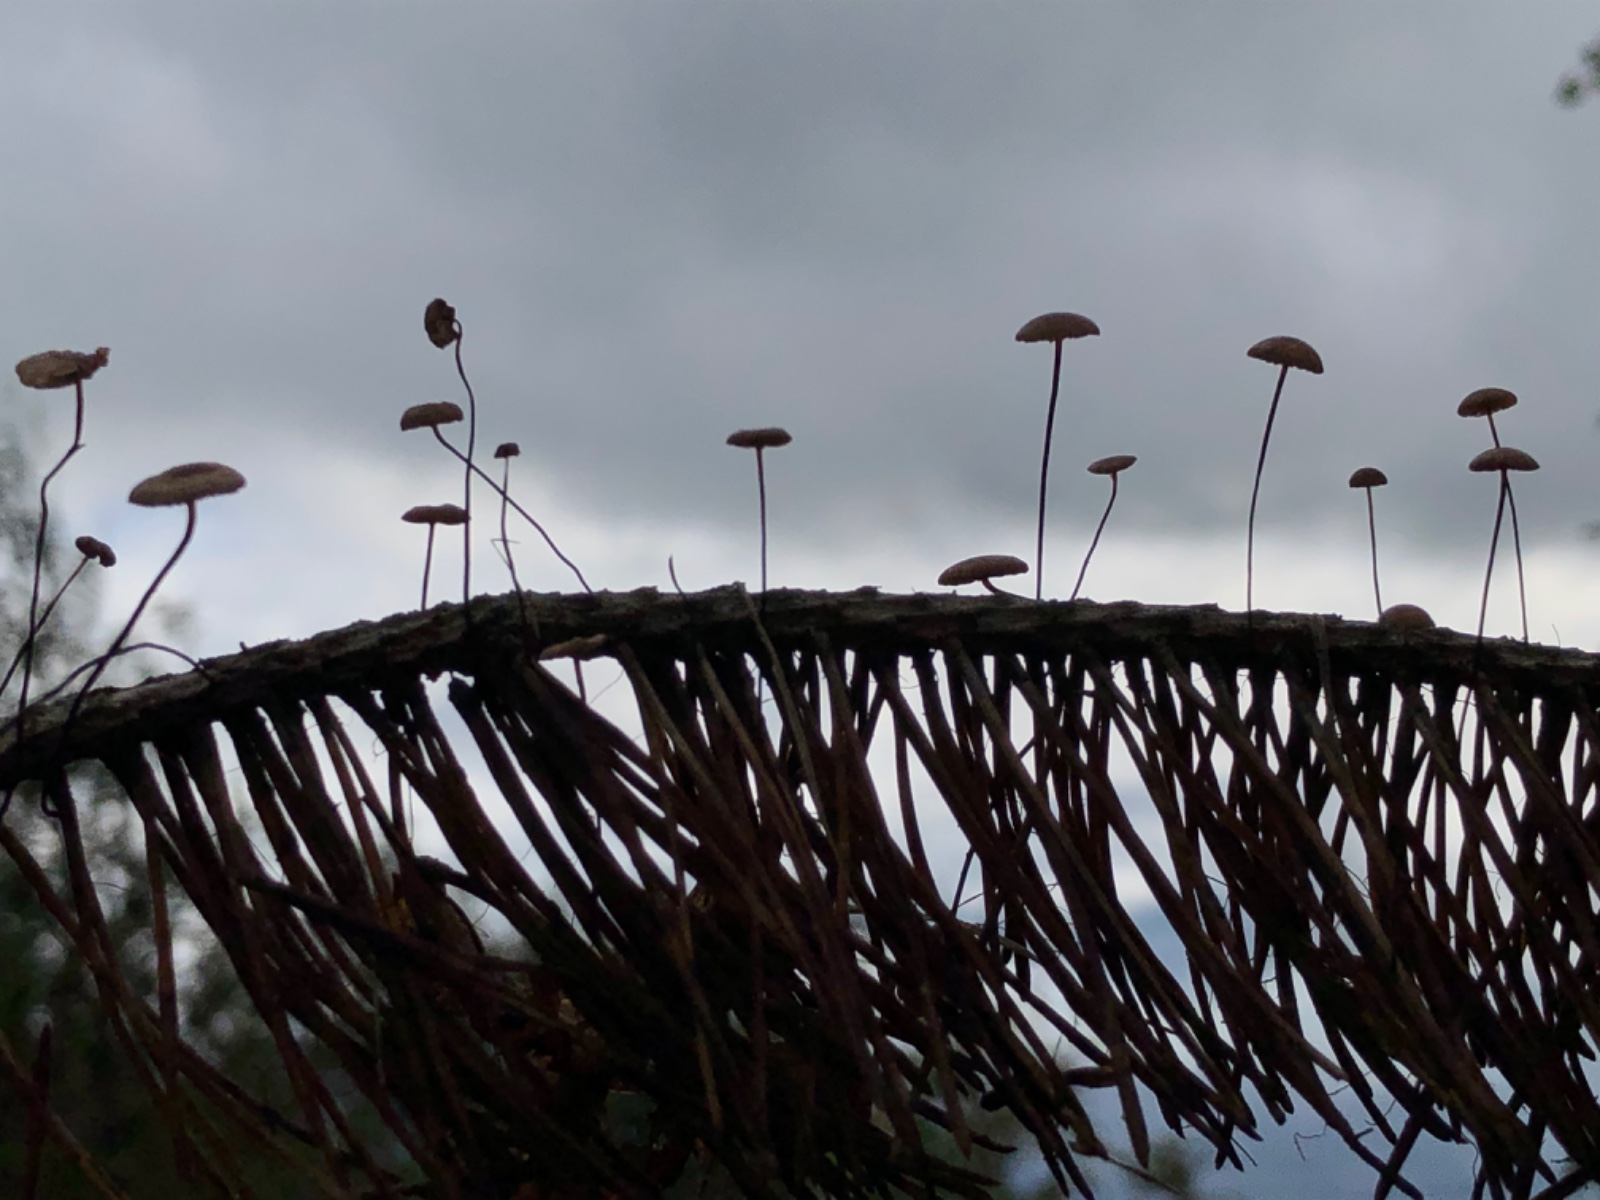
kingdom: Fungi
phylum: Basidiomycota
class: Agaricomycetes
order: Agaricales
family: Omphalotaceae
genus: Gymnopus
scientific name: Gymnopus androsaceus
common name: trådstokket fladhat
